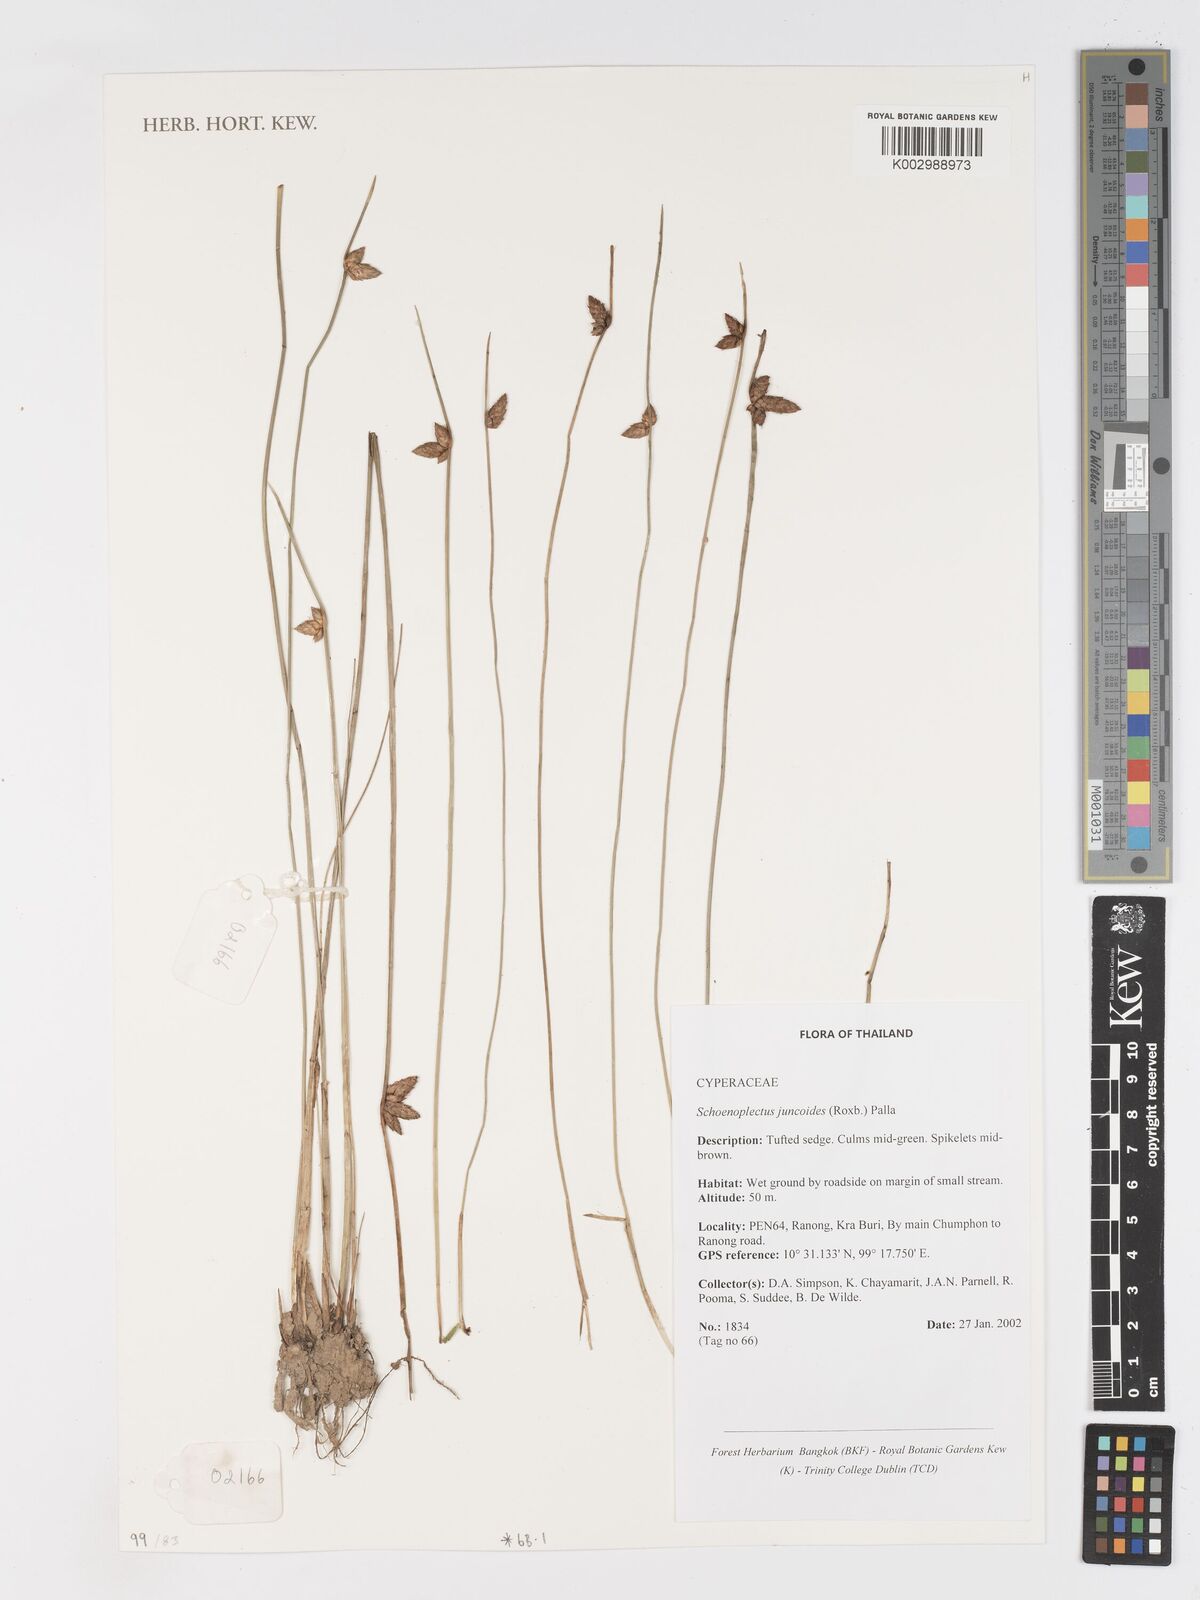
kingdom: Plantae
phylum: Tracheophyta
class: Liliopsida
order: Poales
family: Cyperaceae
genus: Schoenoplectiella
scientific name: Schoenoplectiella juncoides
